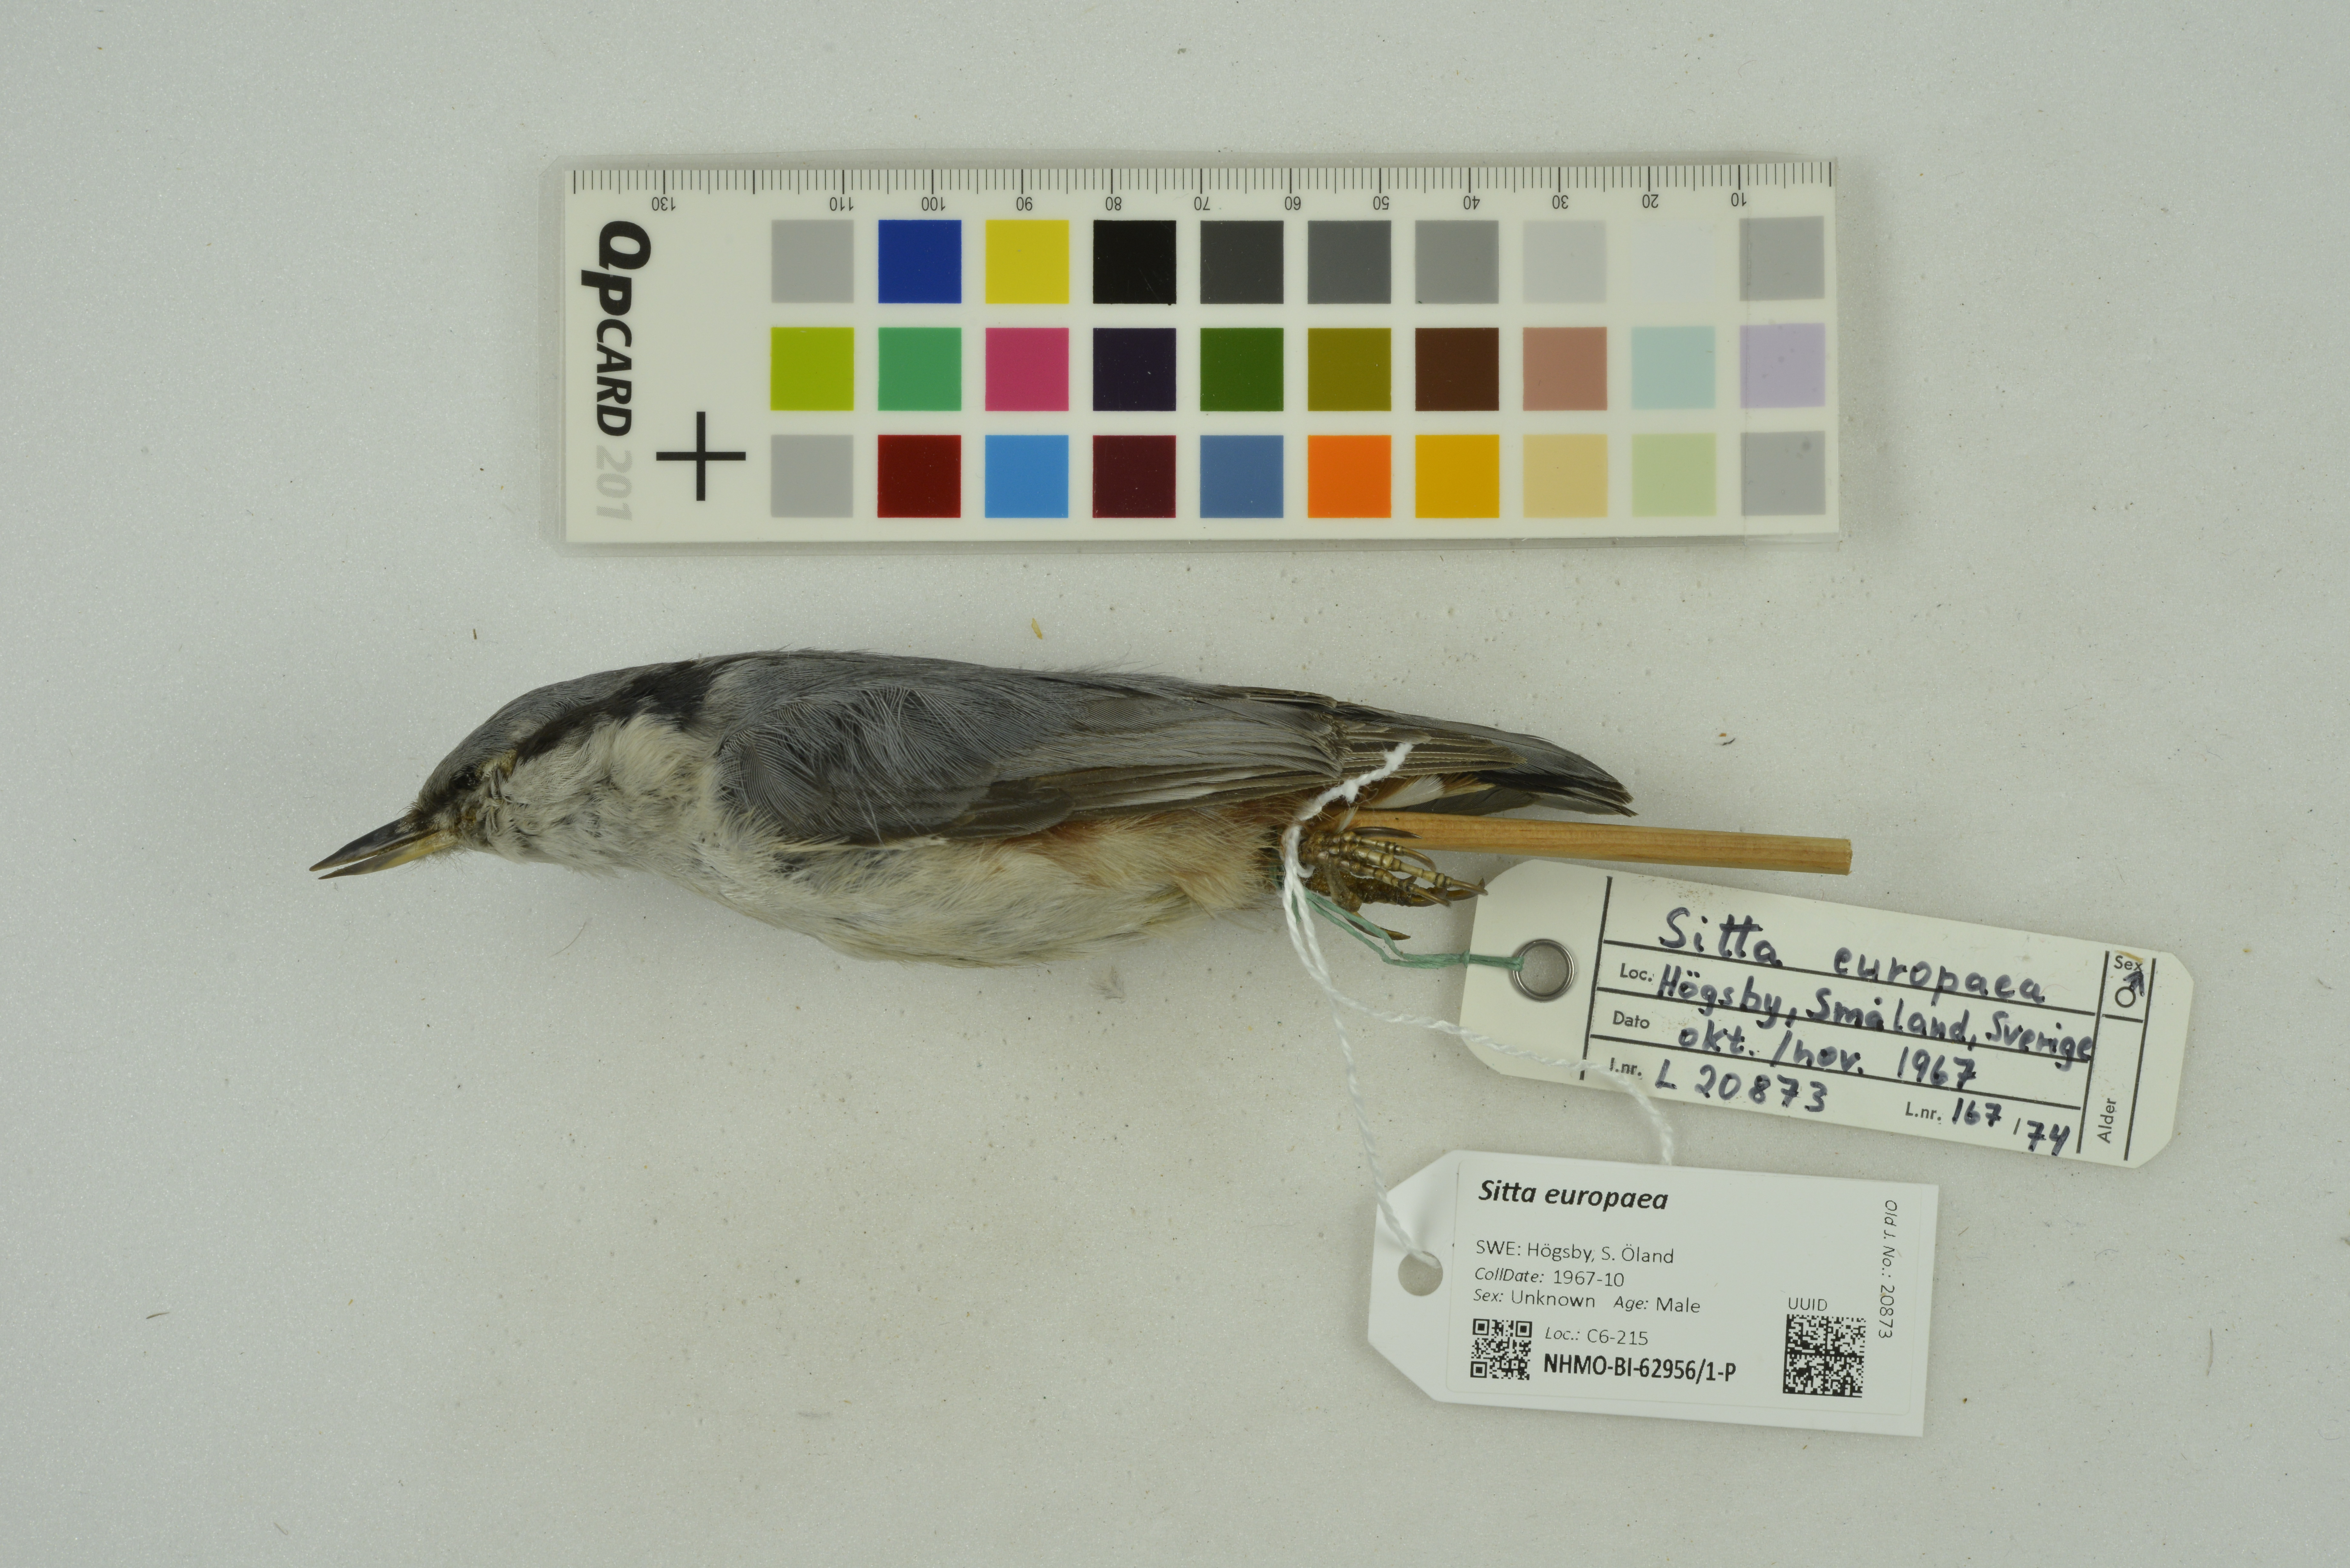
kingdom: Animalia
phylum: Chordata
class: Aves
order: Passeriformes
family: Sittidae
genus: Sitta
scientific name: Sitta europaea
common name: Eurasian nuthatch
